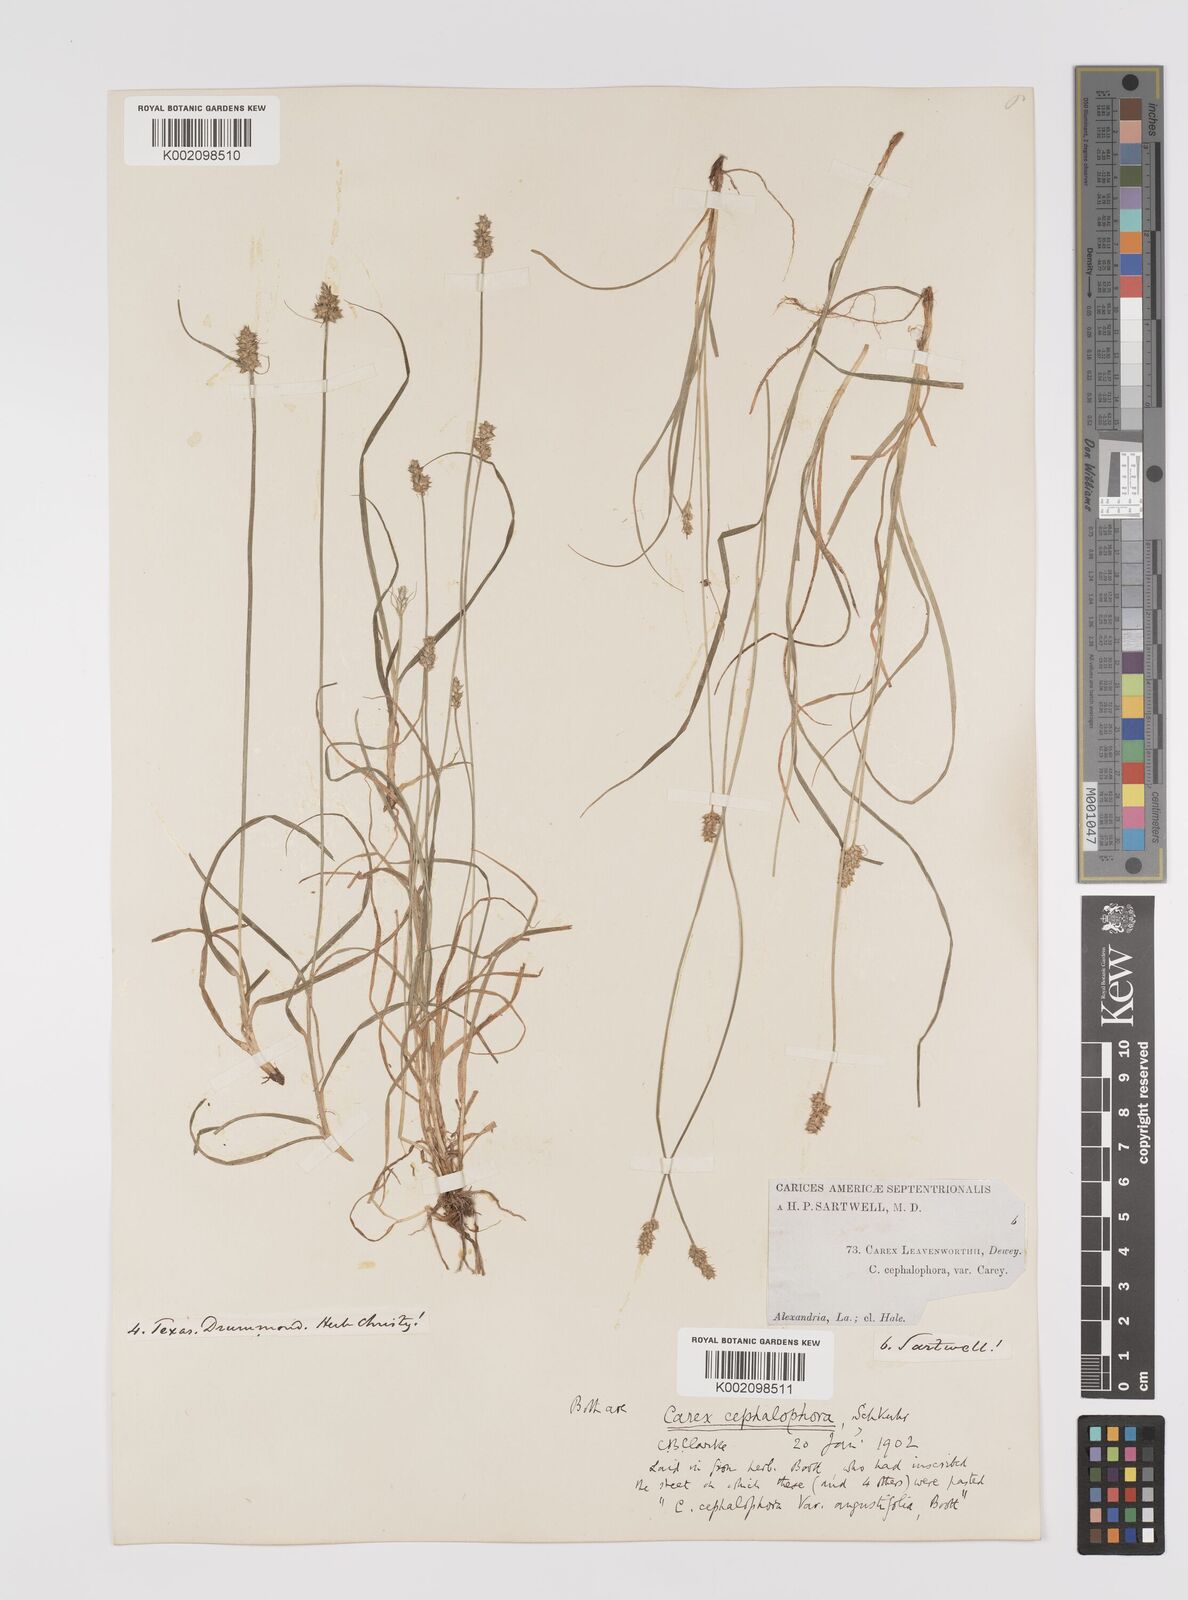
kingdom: Plantae
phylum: Tracheophyta
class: Liliopsida
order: Poales
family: Cyperaceae
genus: Carex
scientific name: Carex cephalophora
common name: Oval-headed sedge
